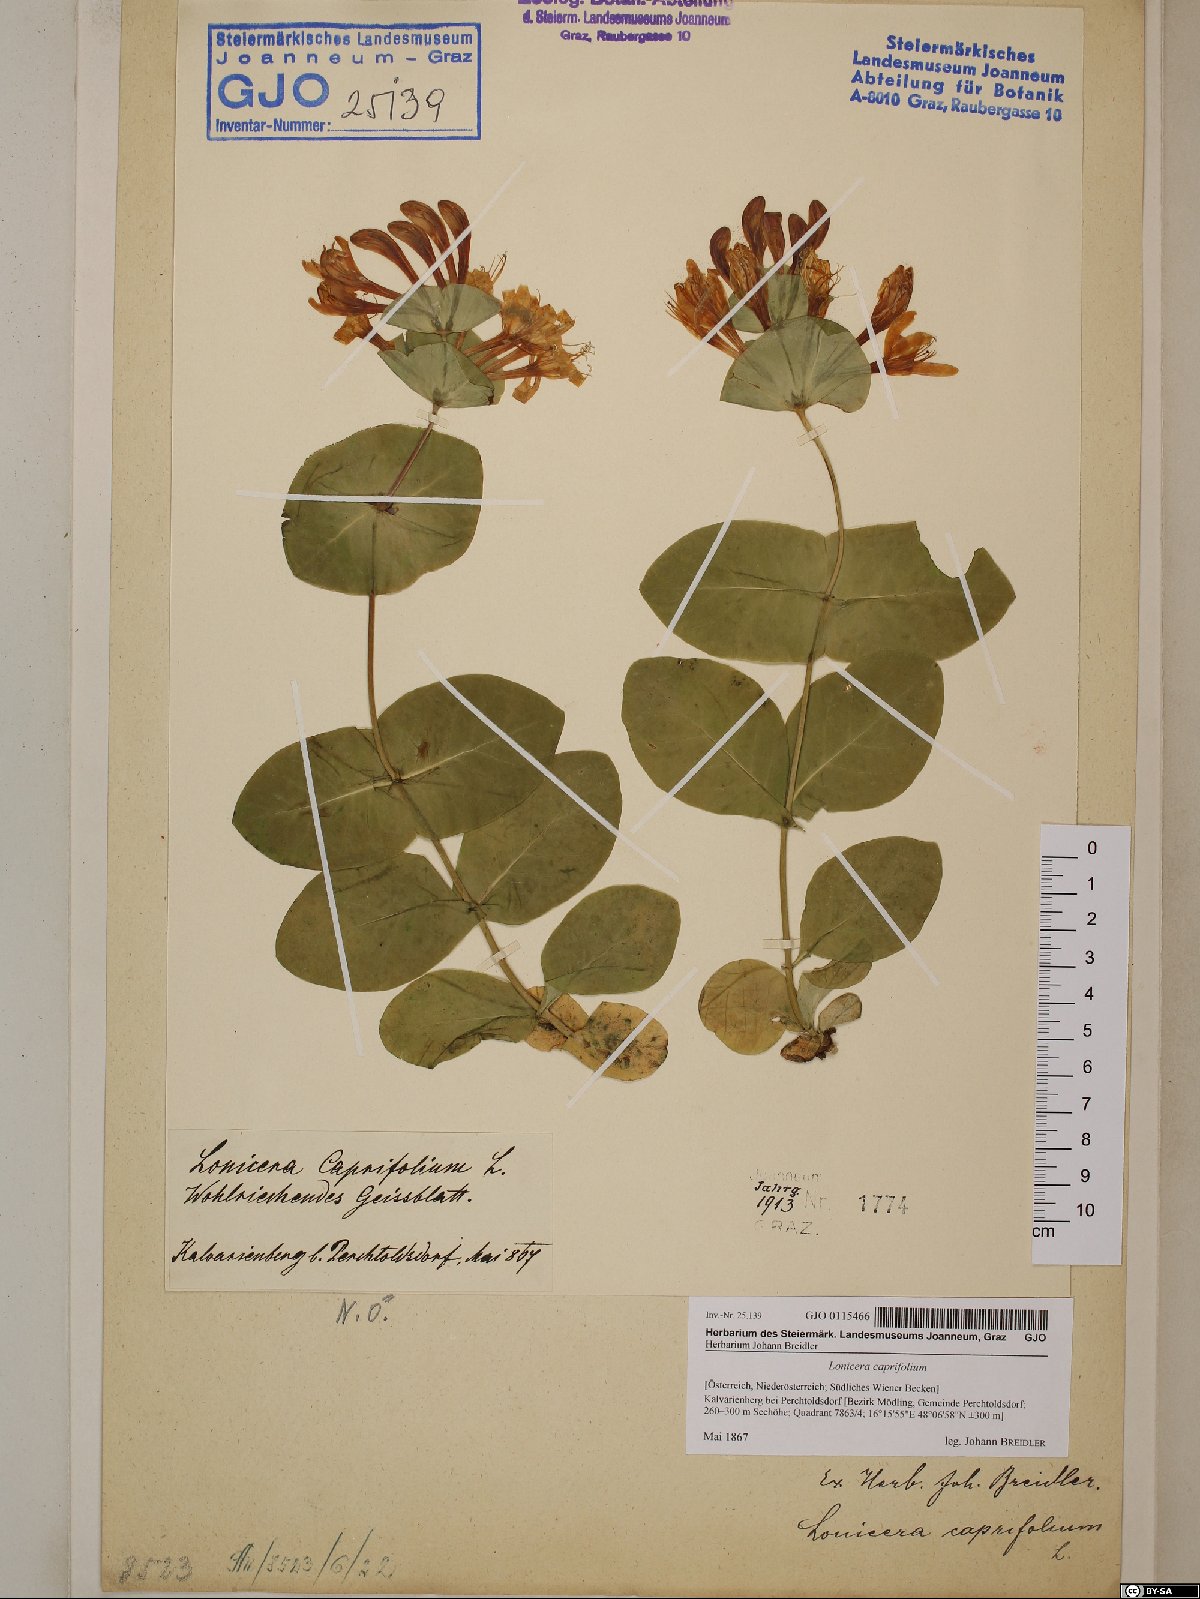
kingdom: Plantae
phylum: Tracheophyta
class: Magnoliopsida
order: Dipsacales
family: Caprifoliaceae
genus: Lonicera
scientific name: Lonicera caprifolium
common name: Perfoliate honeysuckle
